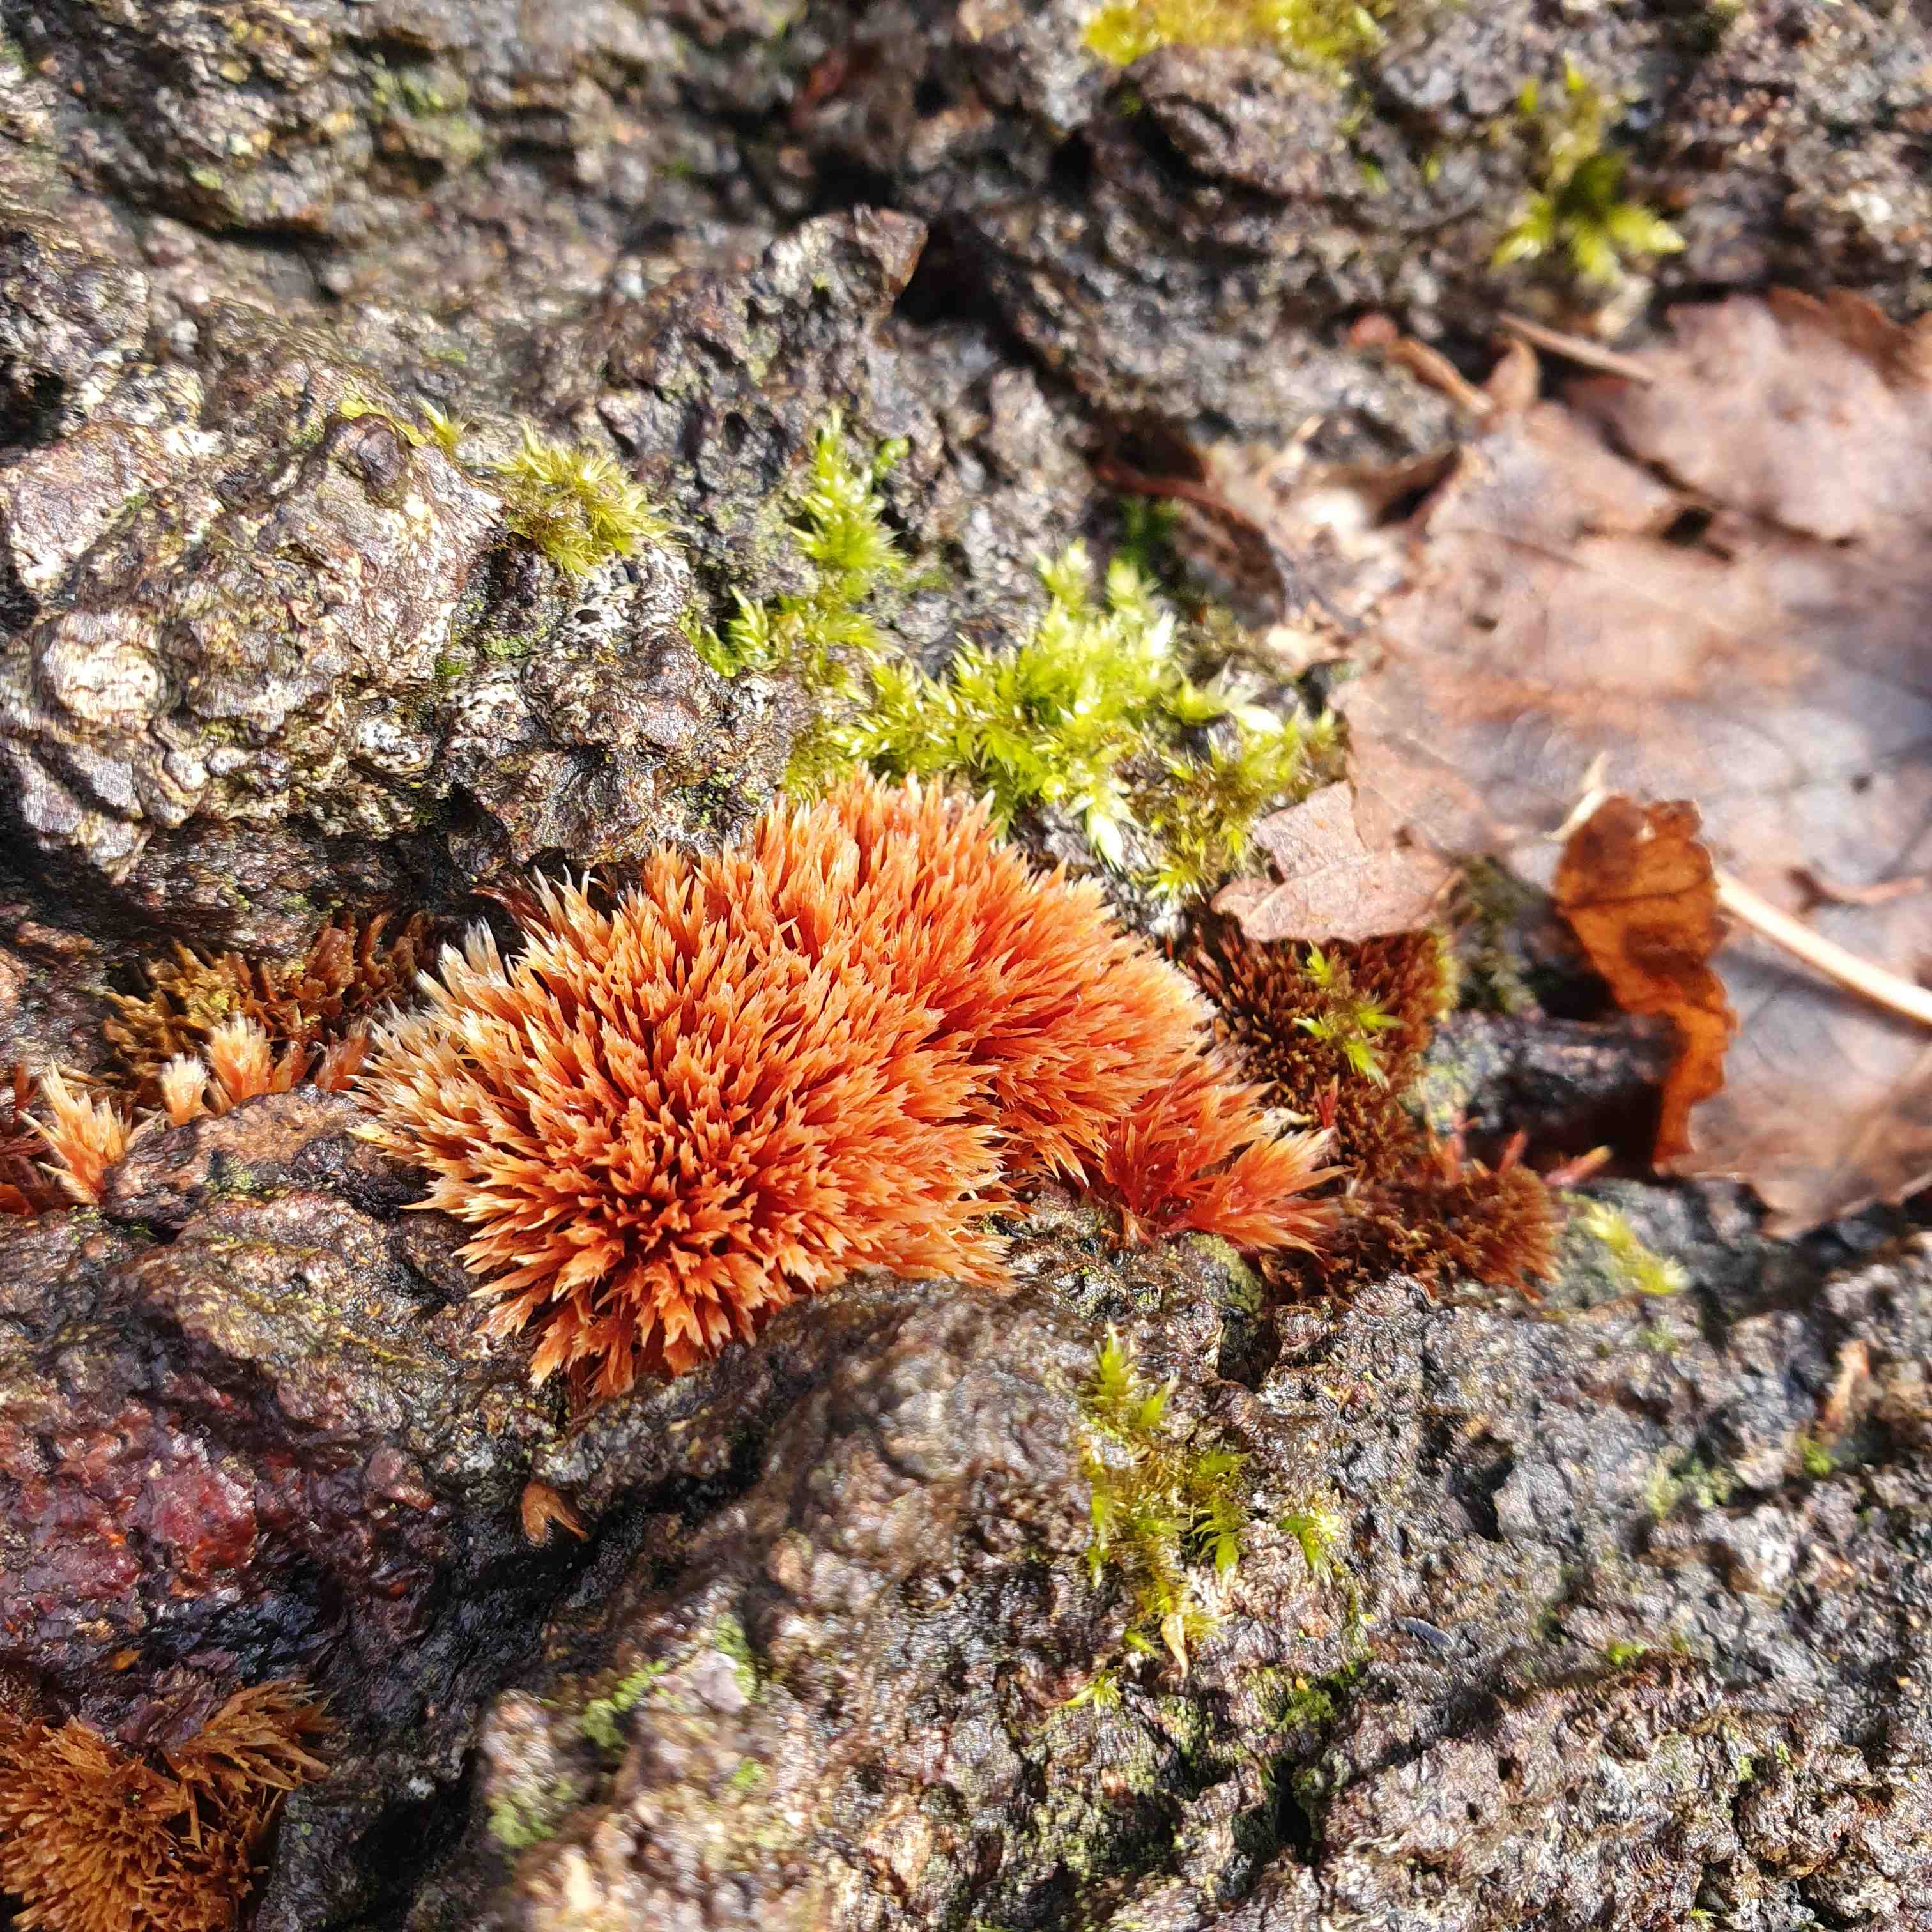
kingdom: Fungi
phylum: Basidiomycota
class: Agaricomycetes
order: Agaricales
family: Psathyrellaceae
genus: Ozonium
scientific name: Ozonium
